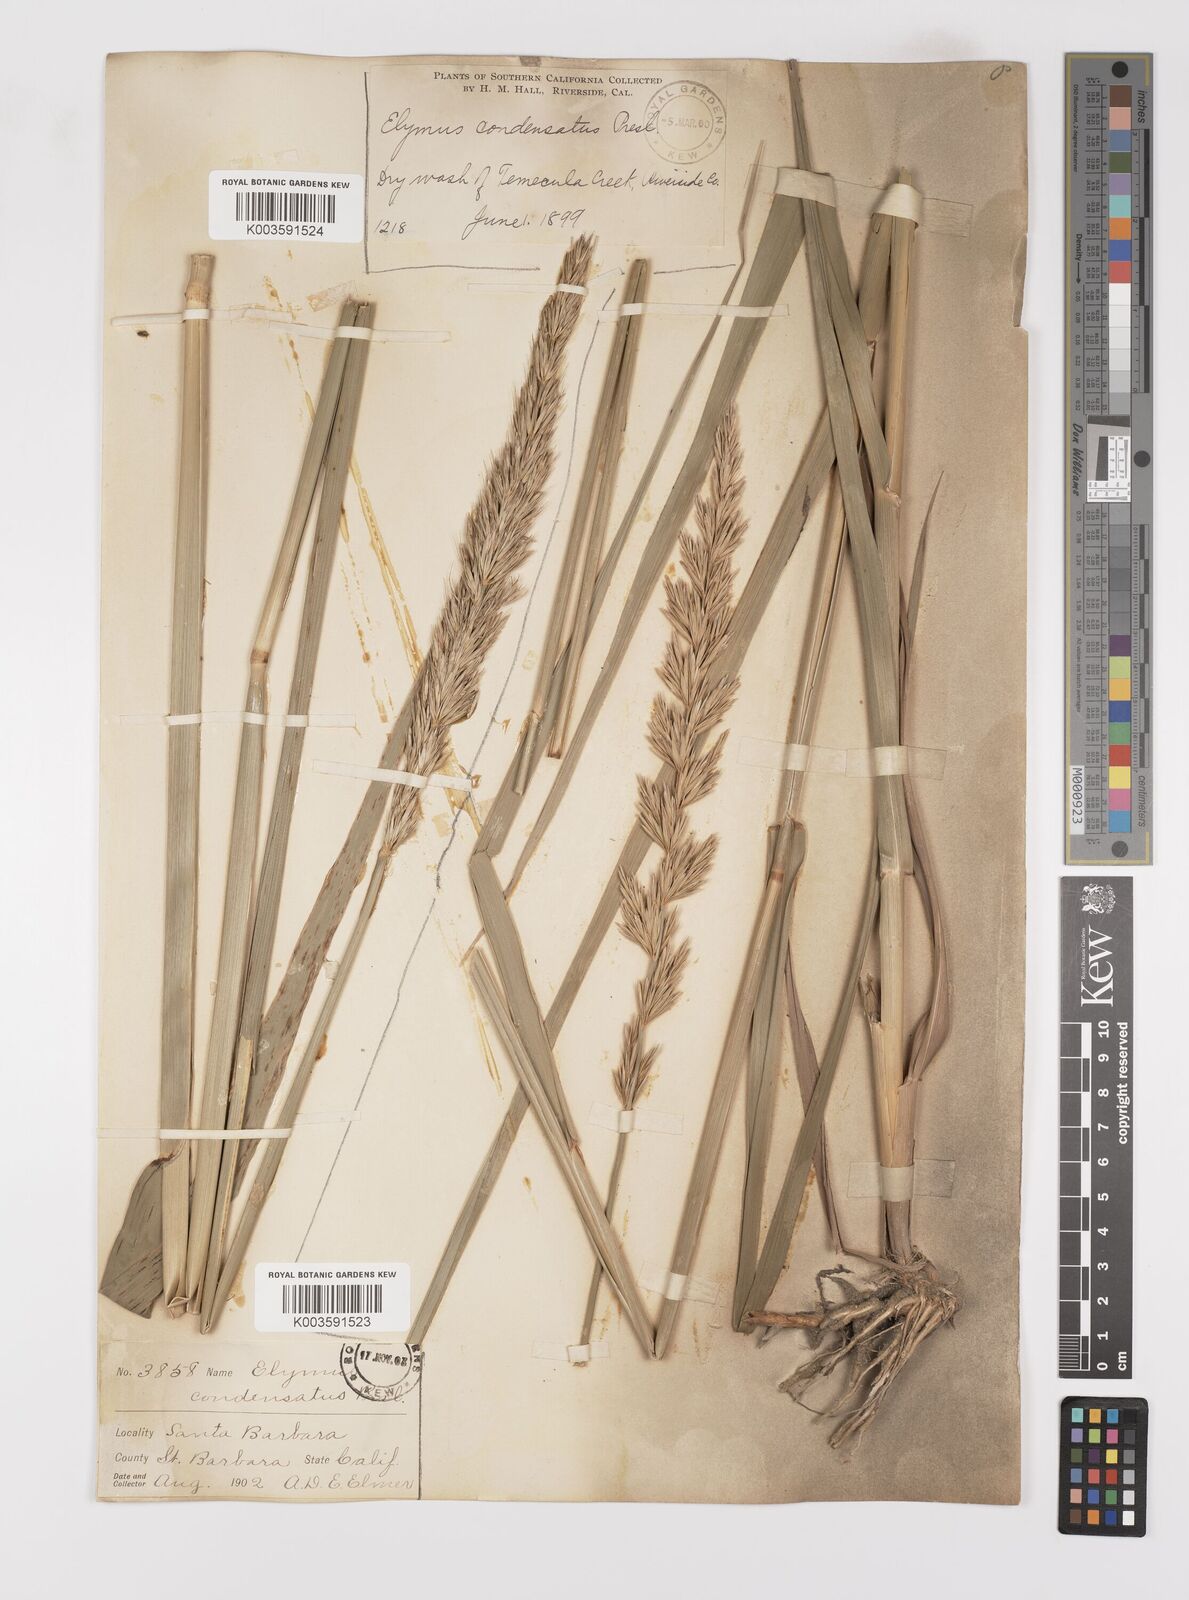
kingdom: Plantae
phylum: Tracheophyta
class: Liliopsida
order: Poales
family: Poaceae
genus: Leymus
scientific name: Leymus condensatus
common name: Giant wild rye
